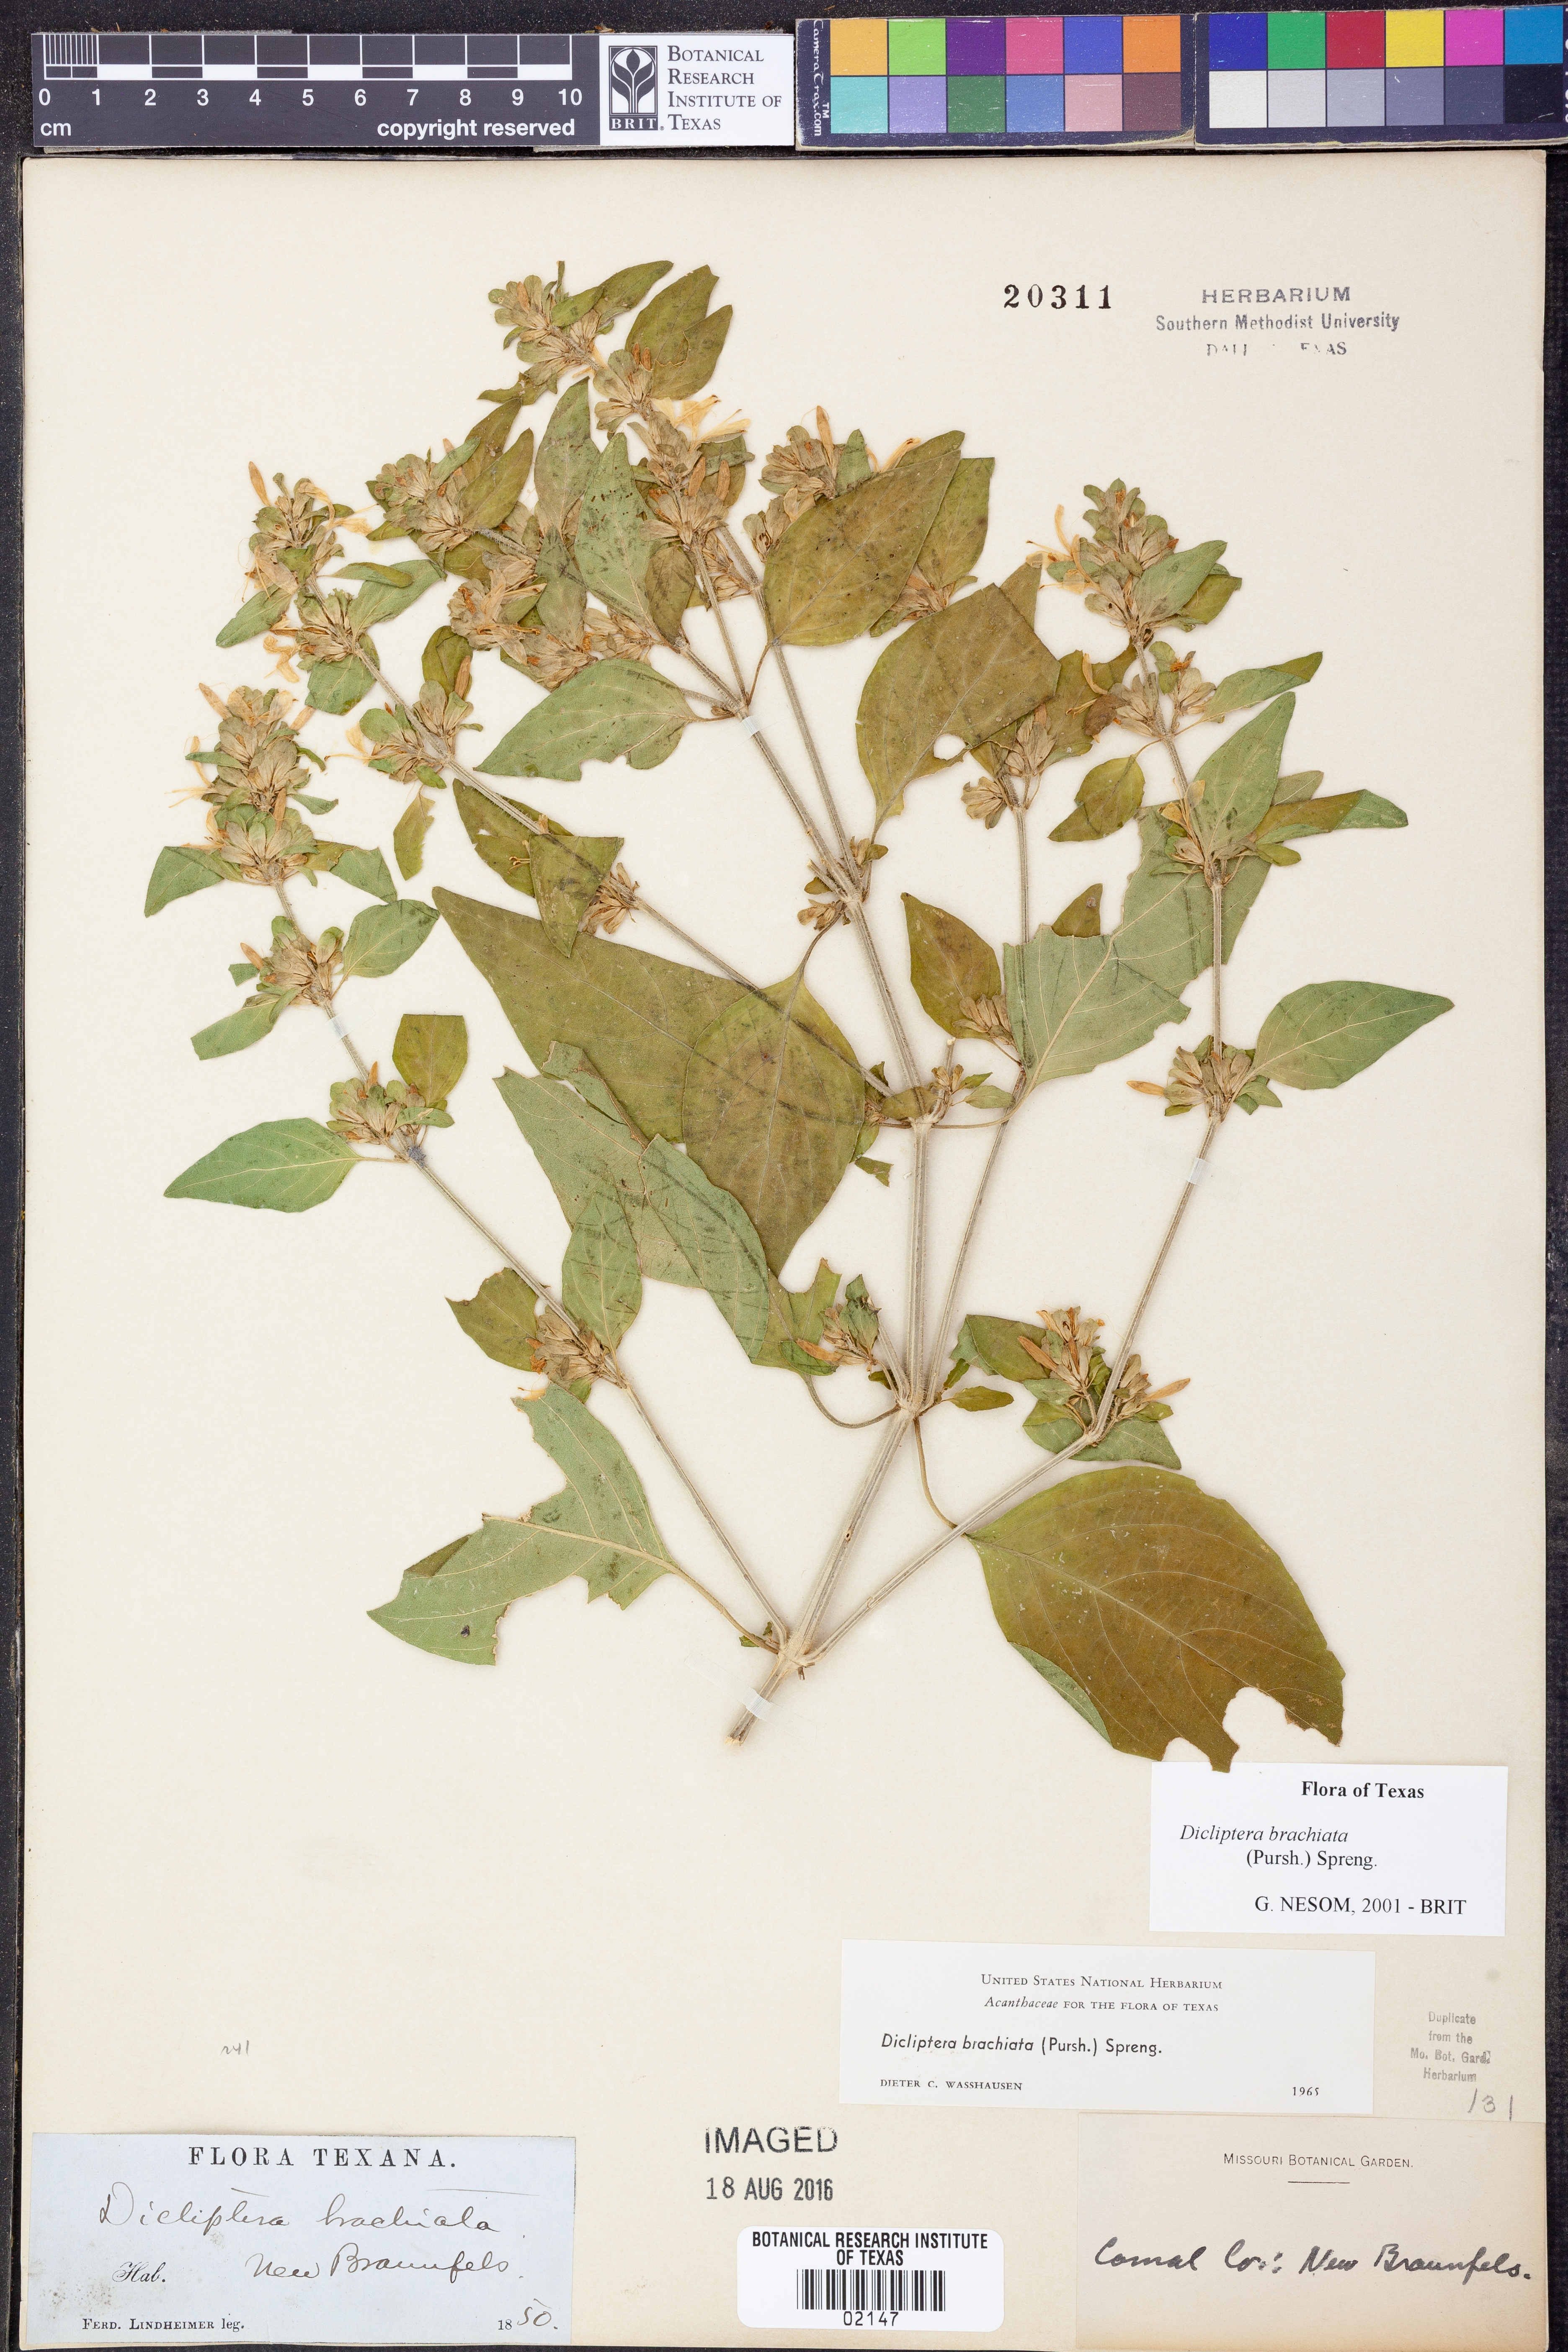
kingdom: Plantae
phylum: Tracheophyta
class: Magnoliopsida
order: Lamiales
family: Acanthaceae
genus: Dicliptera
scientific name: Dicliptera brachiata
